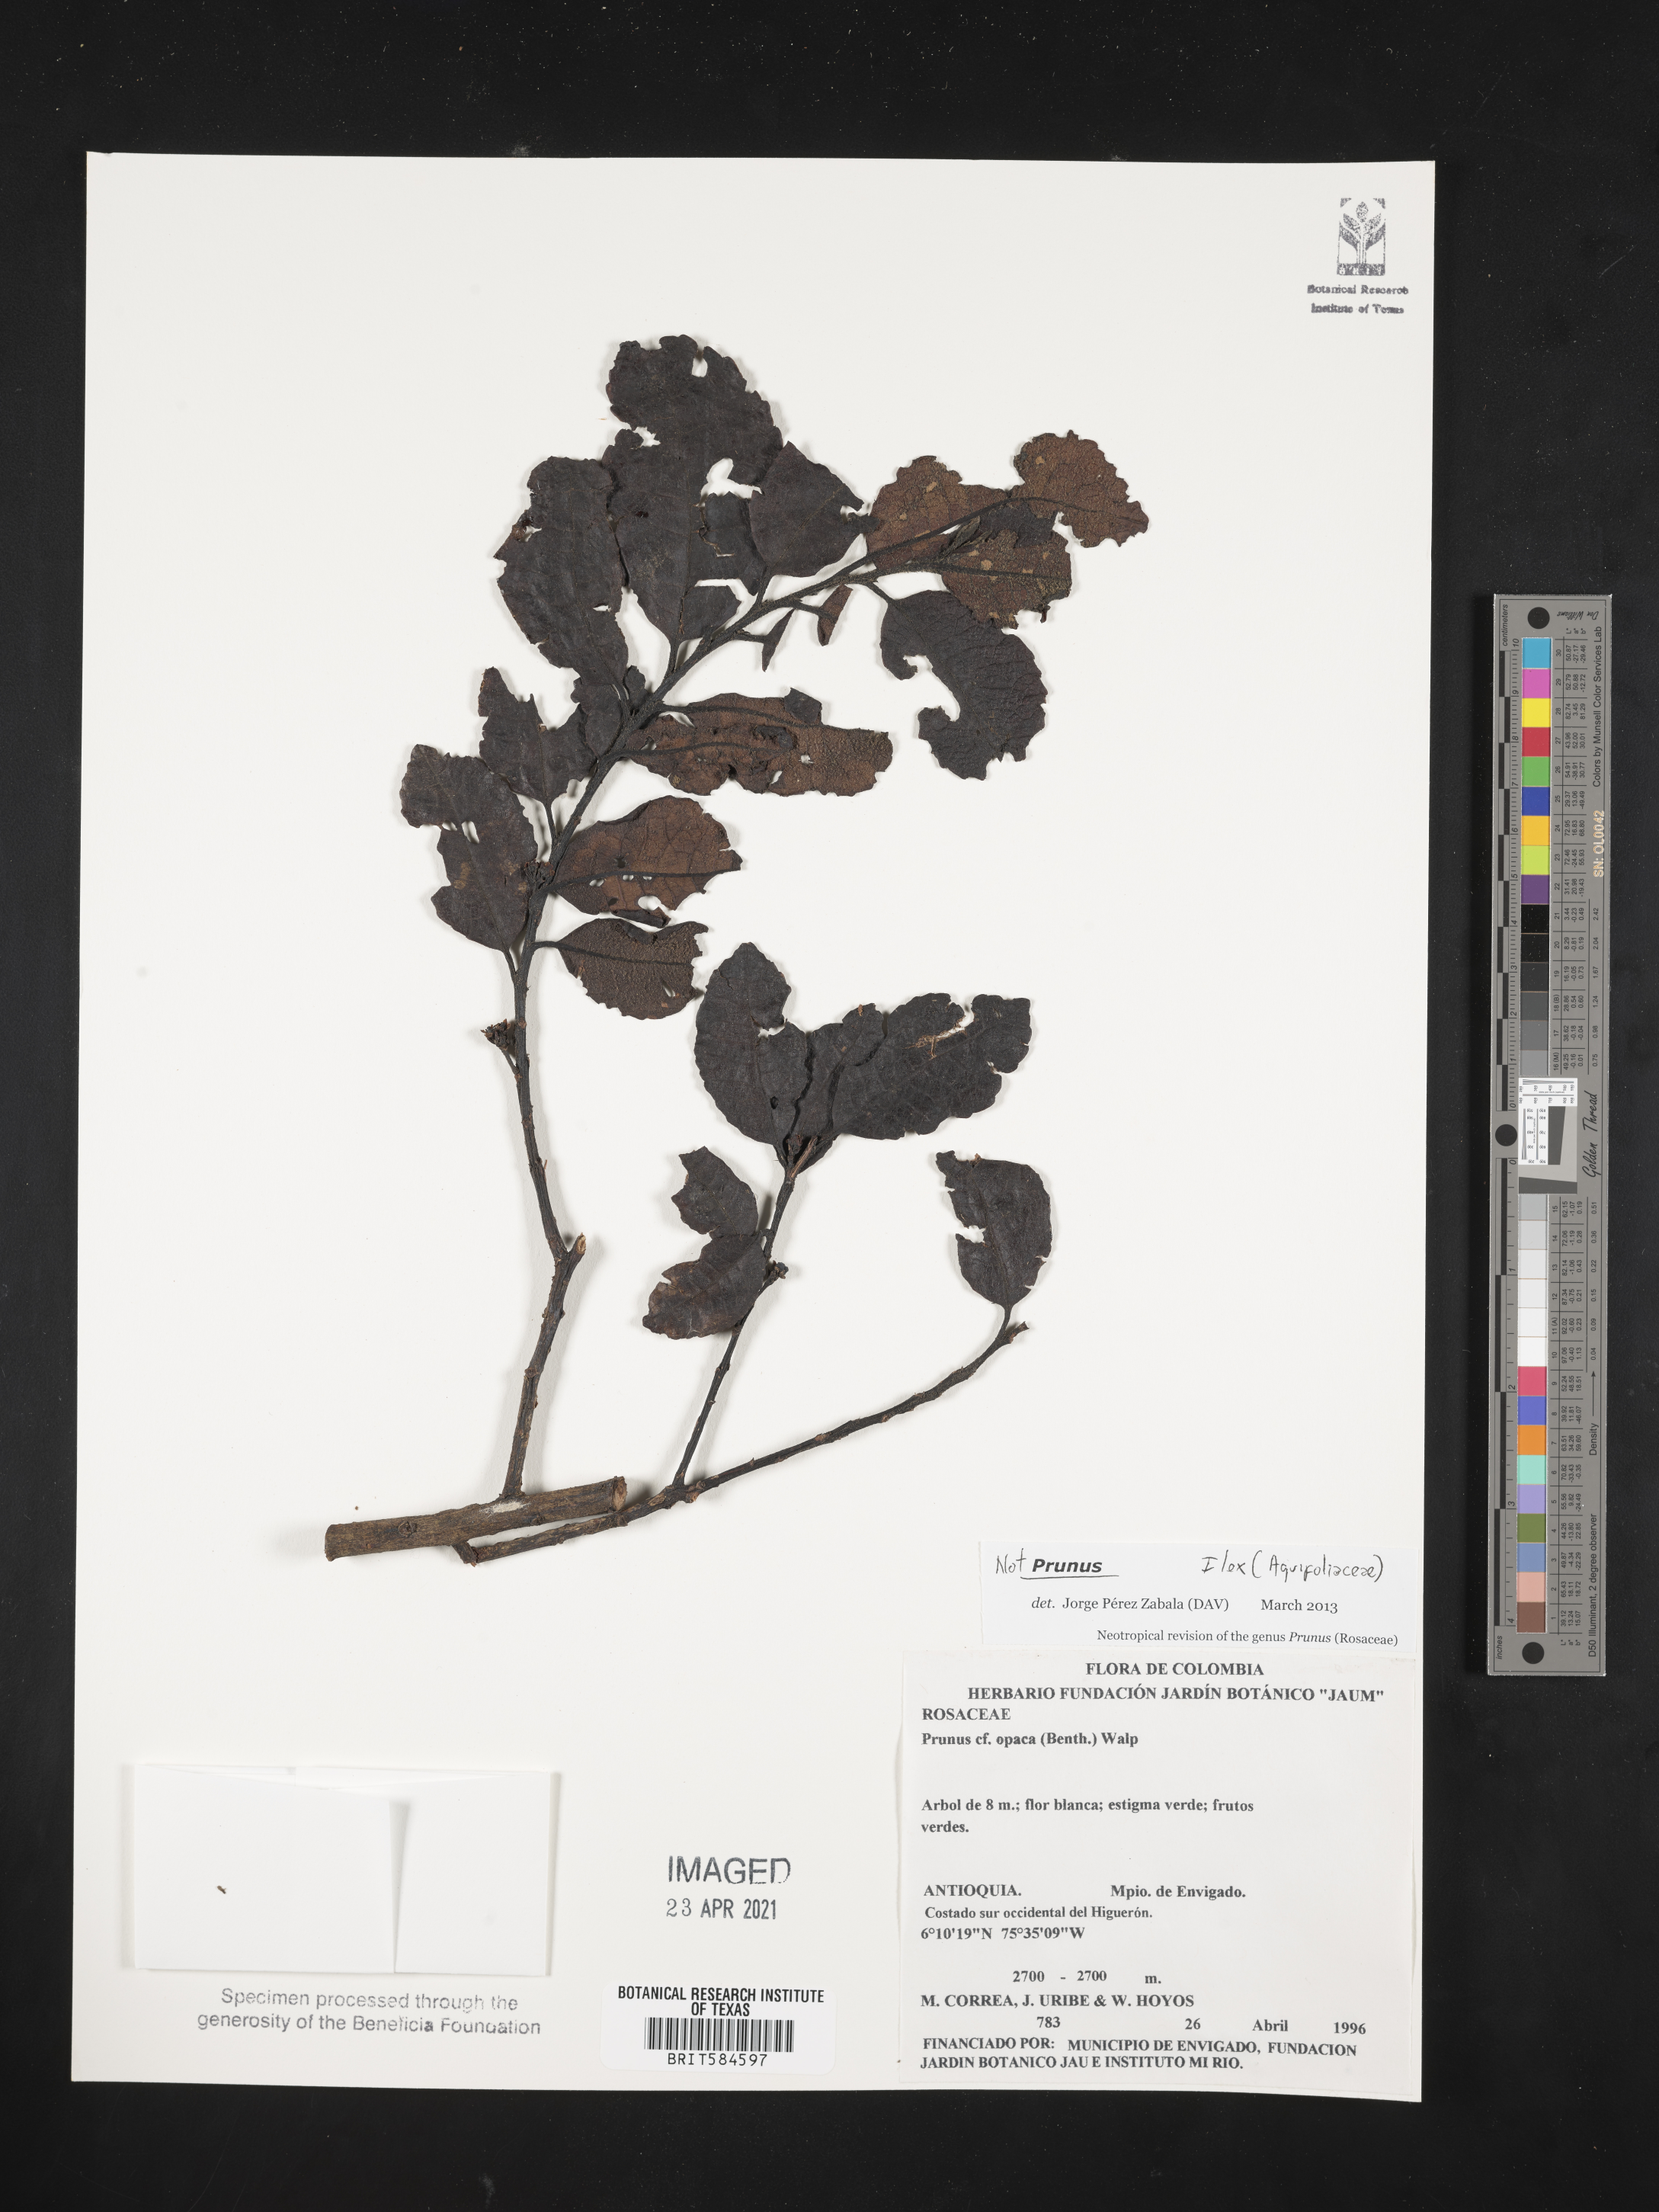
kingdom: Plantae
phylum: Tracheophyta
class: Magnoliopsida
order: Aquifoliales
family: Aquifoliaceae
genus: Ilex
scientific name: Ilex
